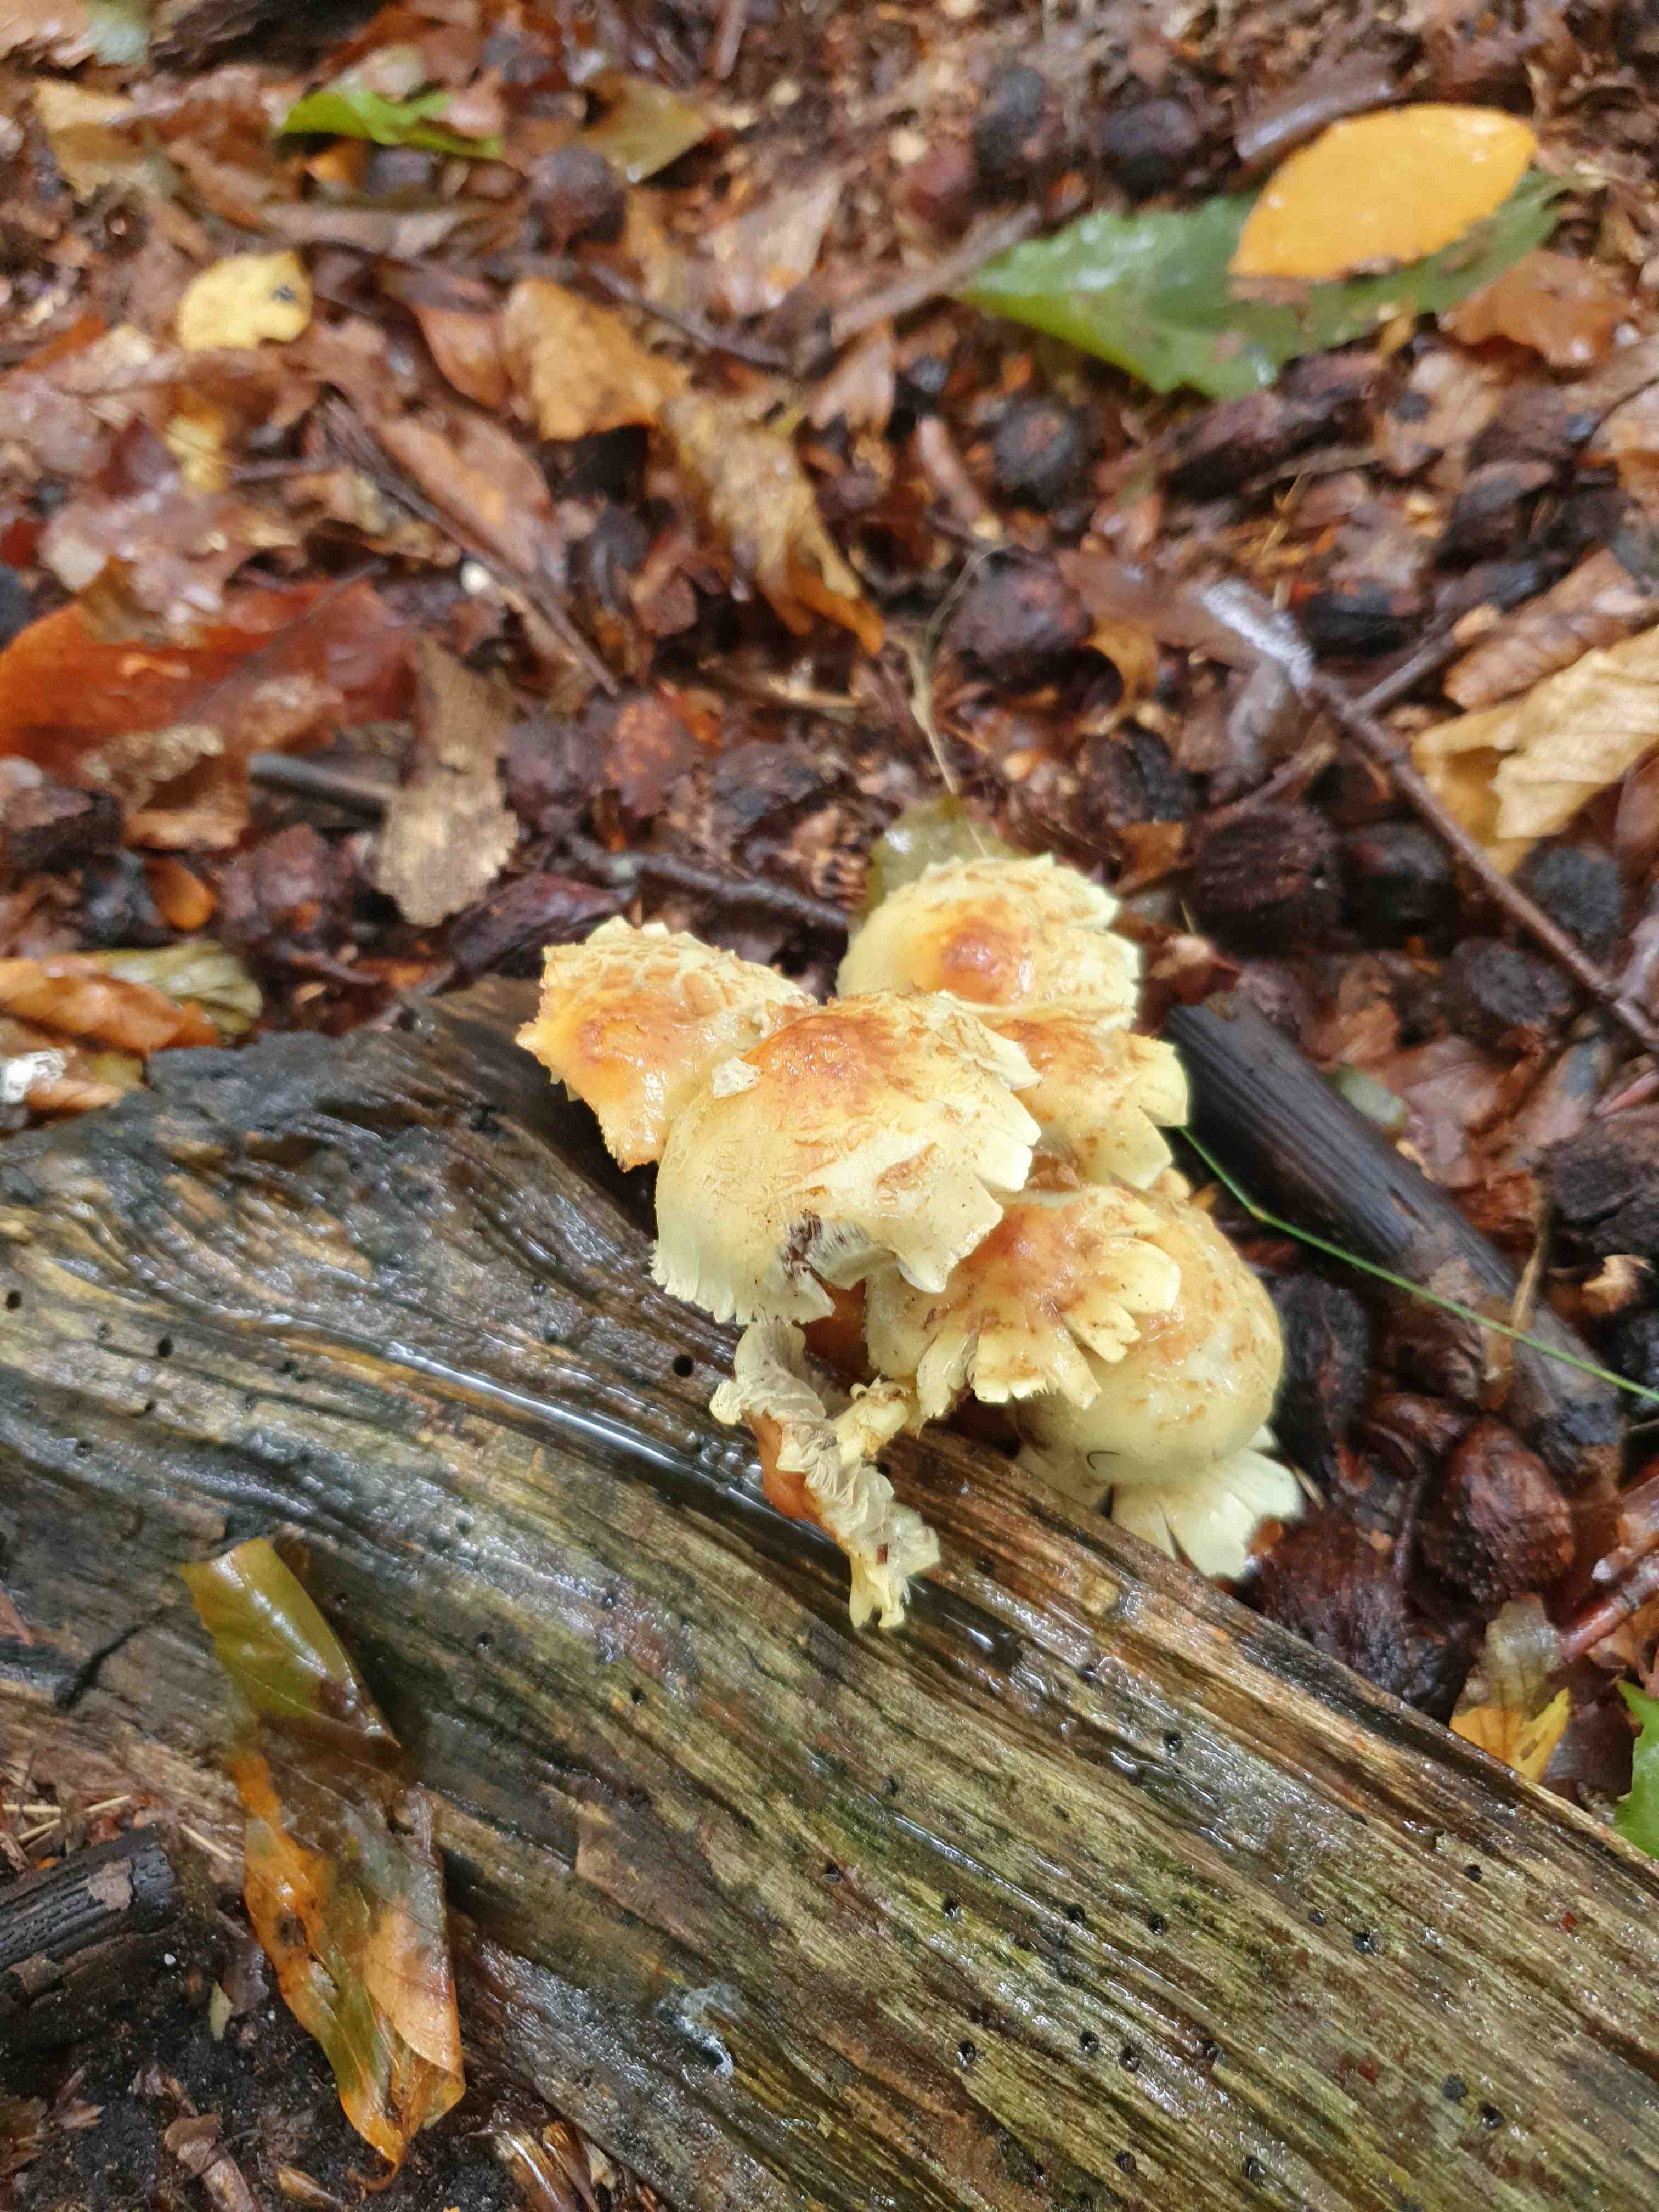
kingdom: Fungi
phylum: Basidiomycota
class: Agaricomycetes
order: Agaricales
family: Strophariaceae
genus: Hypholoma
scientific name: Hypholoma fasciculare
